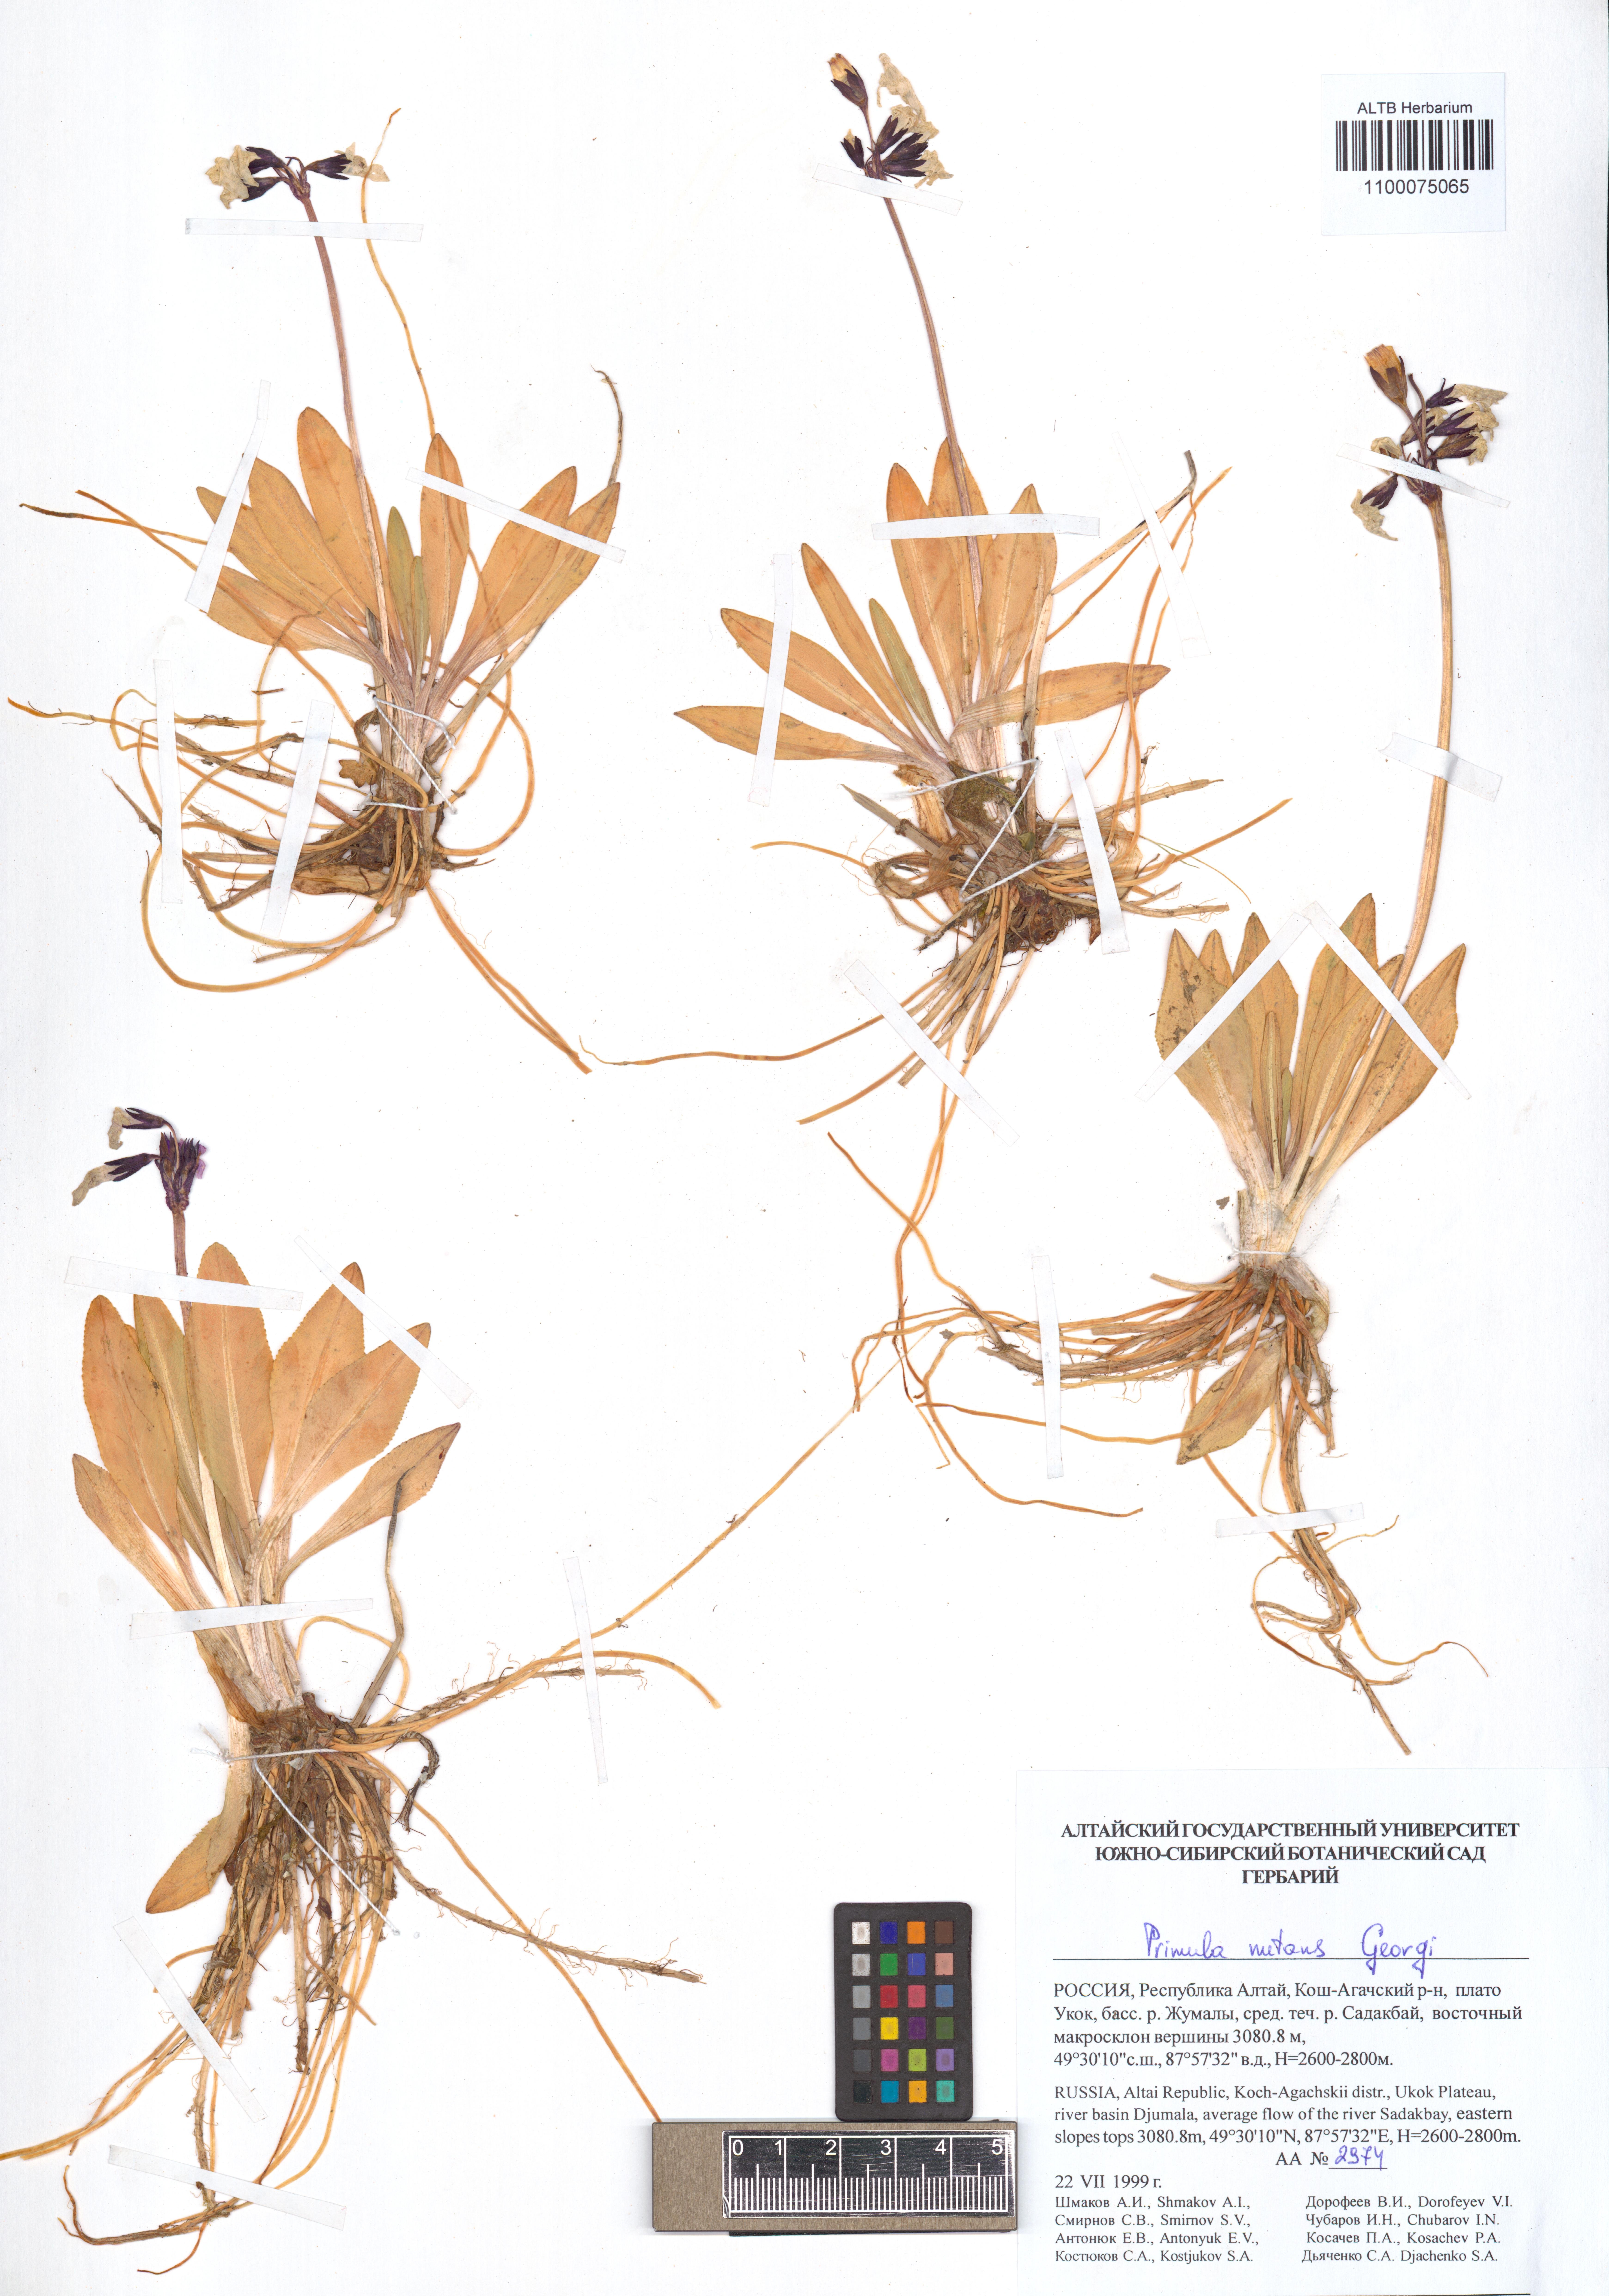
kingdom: Plantae
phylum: Tracheophyta
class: Magnoliopsida
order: Ericales
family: Primulaceae
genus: Primula
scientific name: Primula nutans
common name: Siberian primrose
